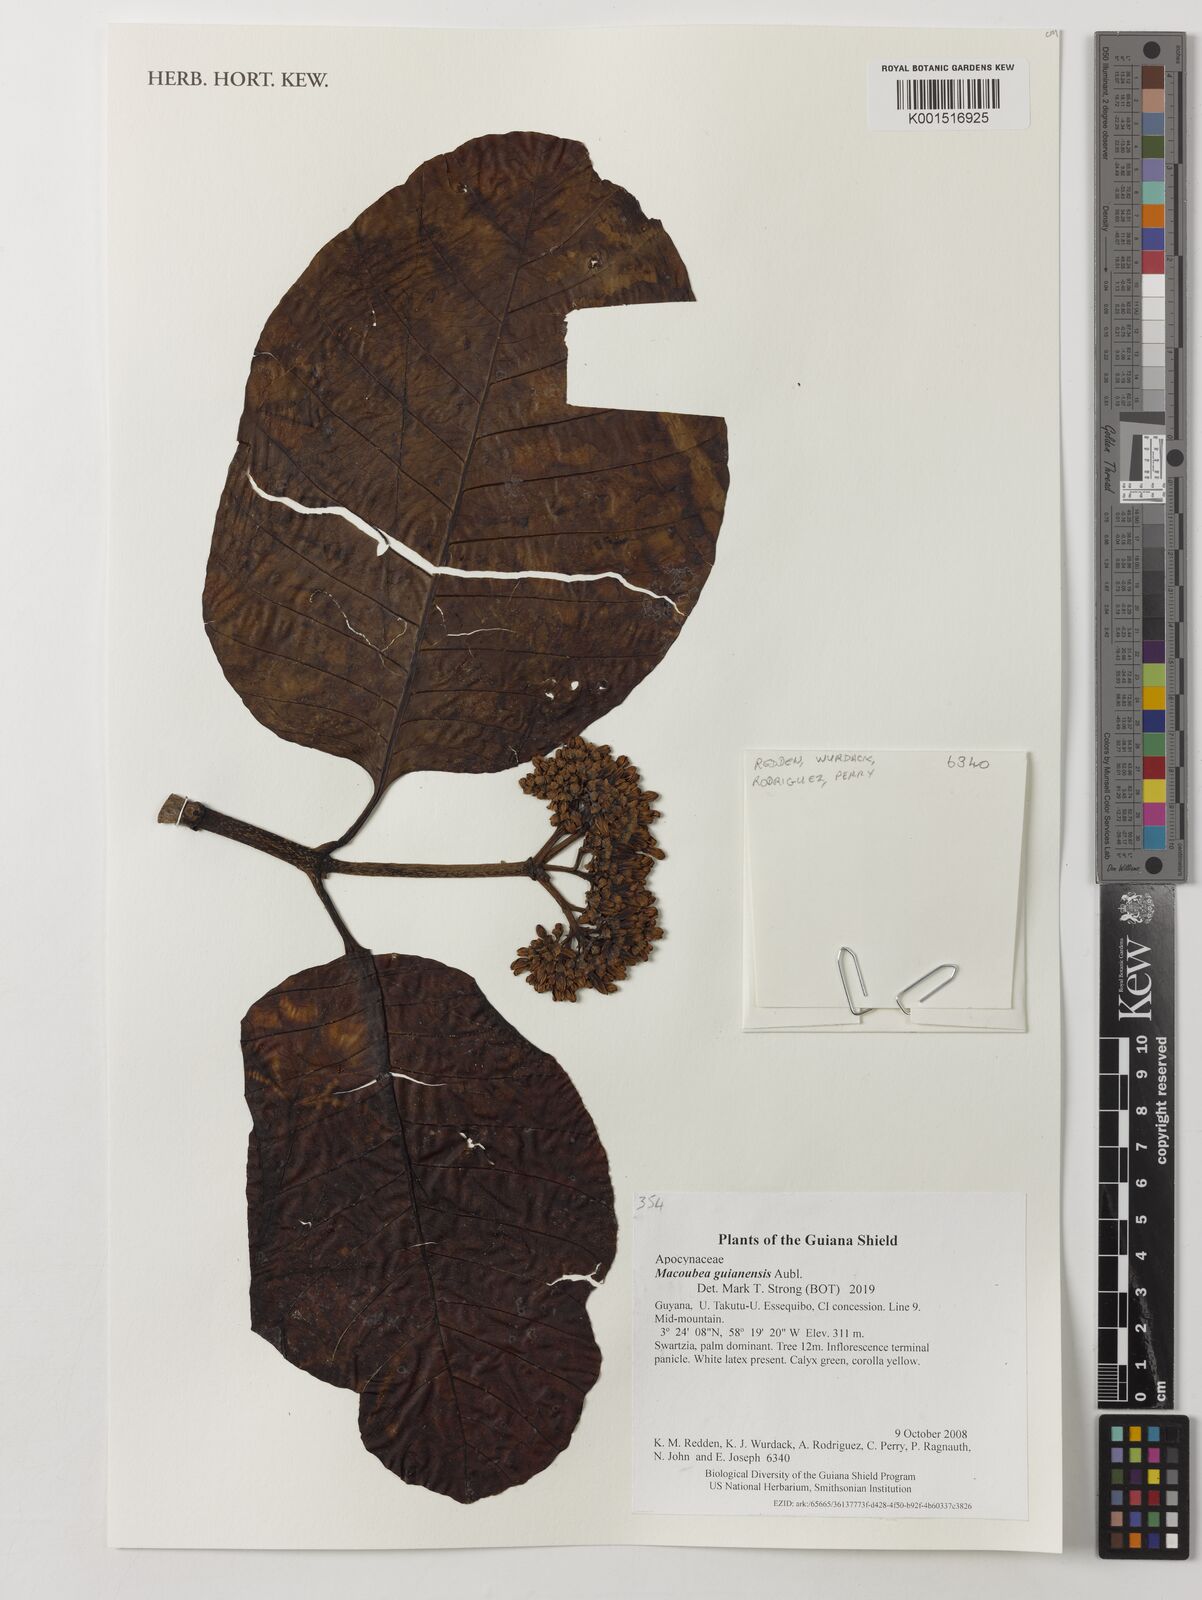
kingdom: Plantae
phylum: Tracheophyta
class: Magnoliopsida
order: Gentianales
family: Apocynaceae
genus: Macoubea
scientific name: Macoubea guianensis
